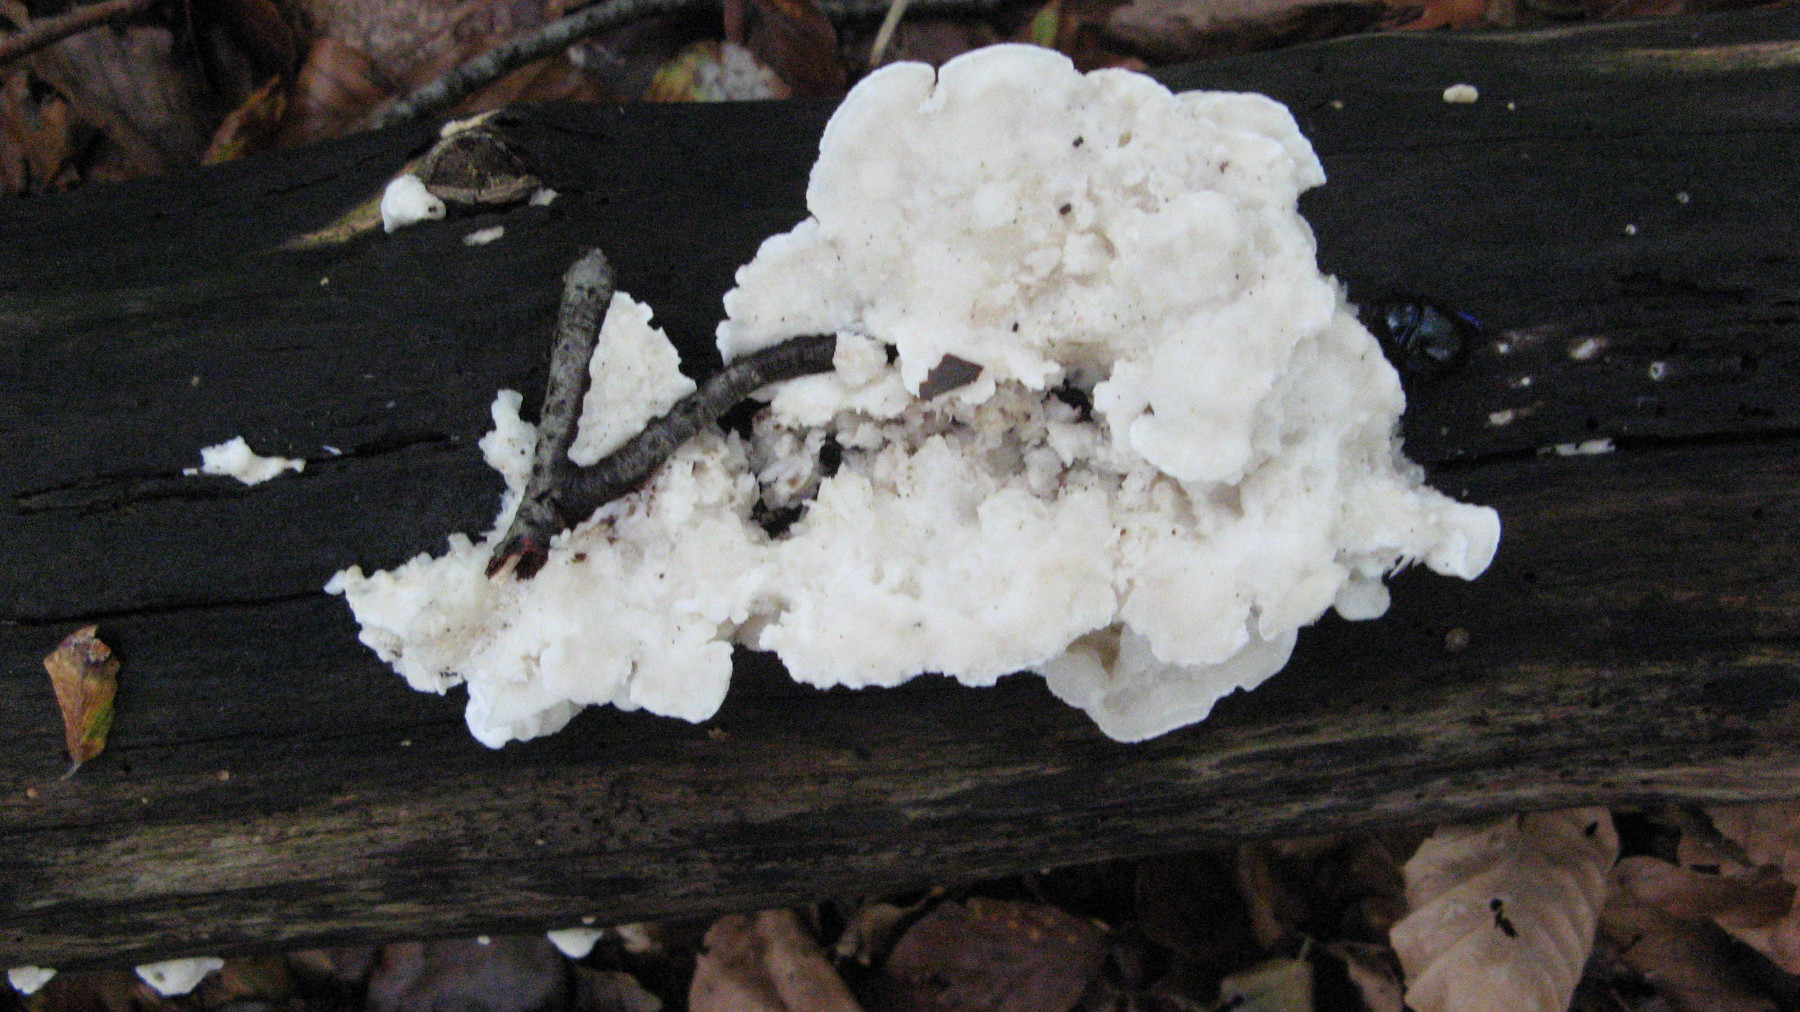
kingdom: Fungi
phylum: Basidiomycota
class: Agaricomycetes
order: Polyporales
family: Incrustoporiaceae
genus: Tyromyces
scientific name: Tyromyces lacteus
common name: mælkehvid kødporesvamp
